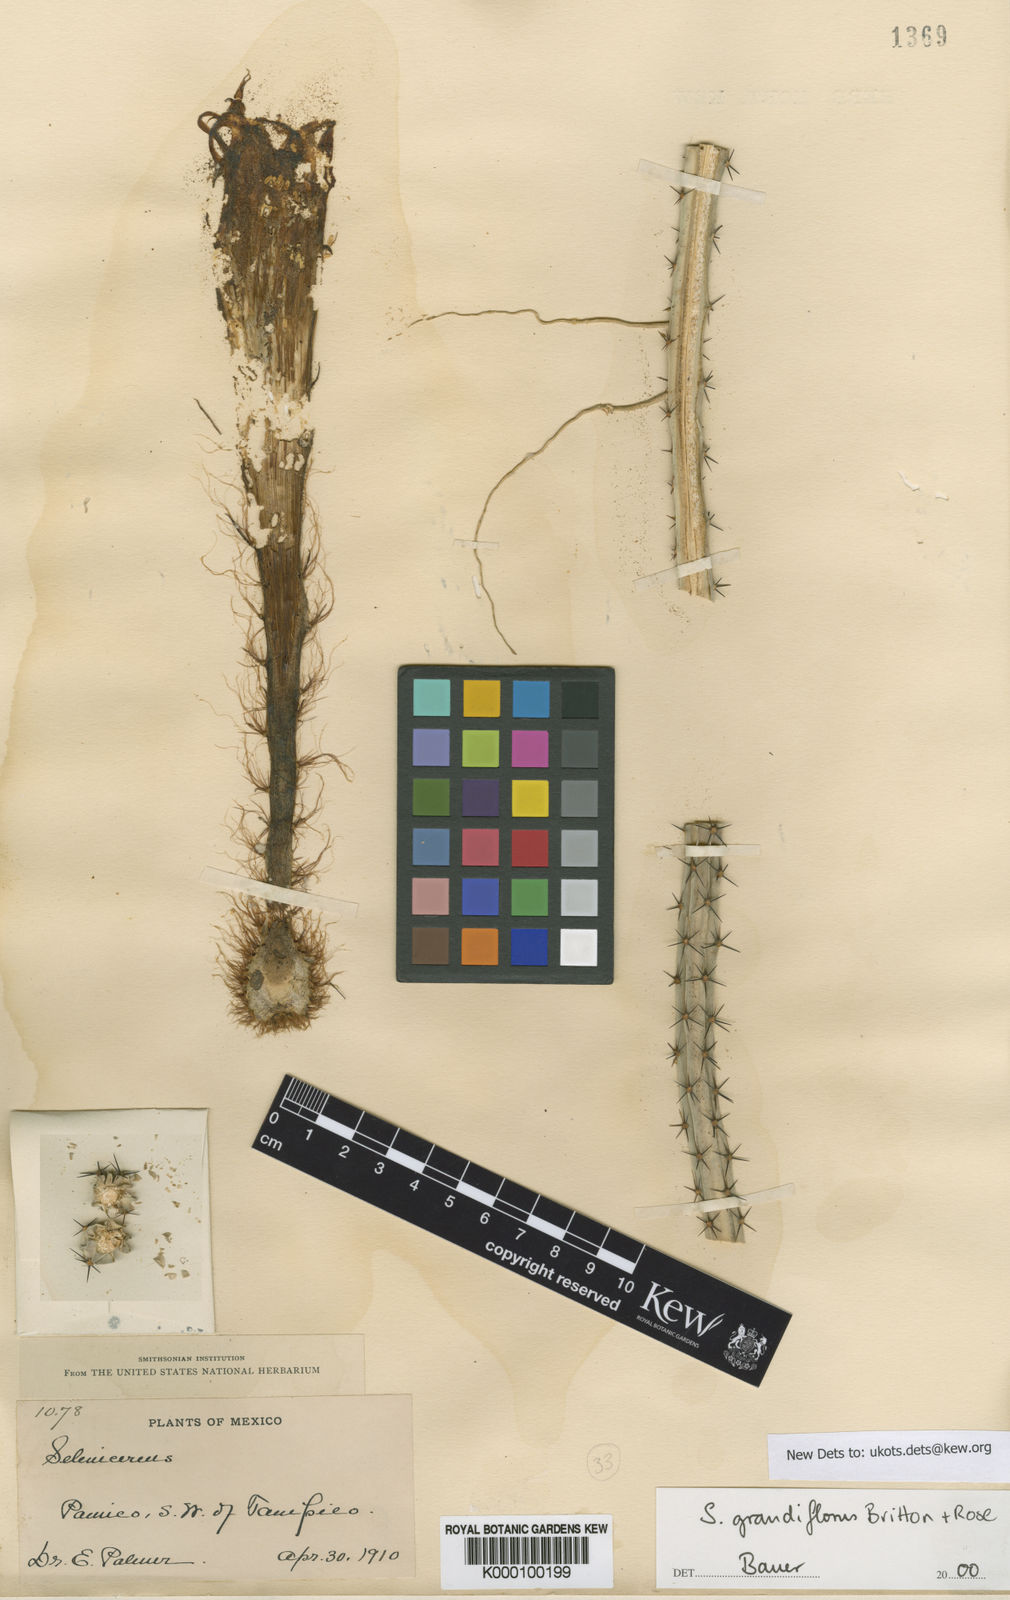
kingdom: Plantae
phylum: Tracheophyta
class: Magnoliopsida
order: Caryophyllales
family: Cactaceae
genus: Selenicereus
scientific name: Selenicereus grandiflorus
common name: Queen of the night
